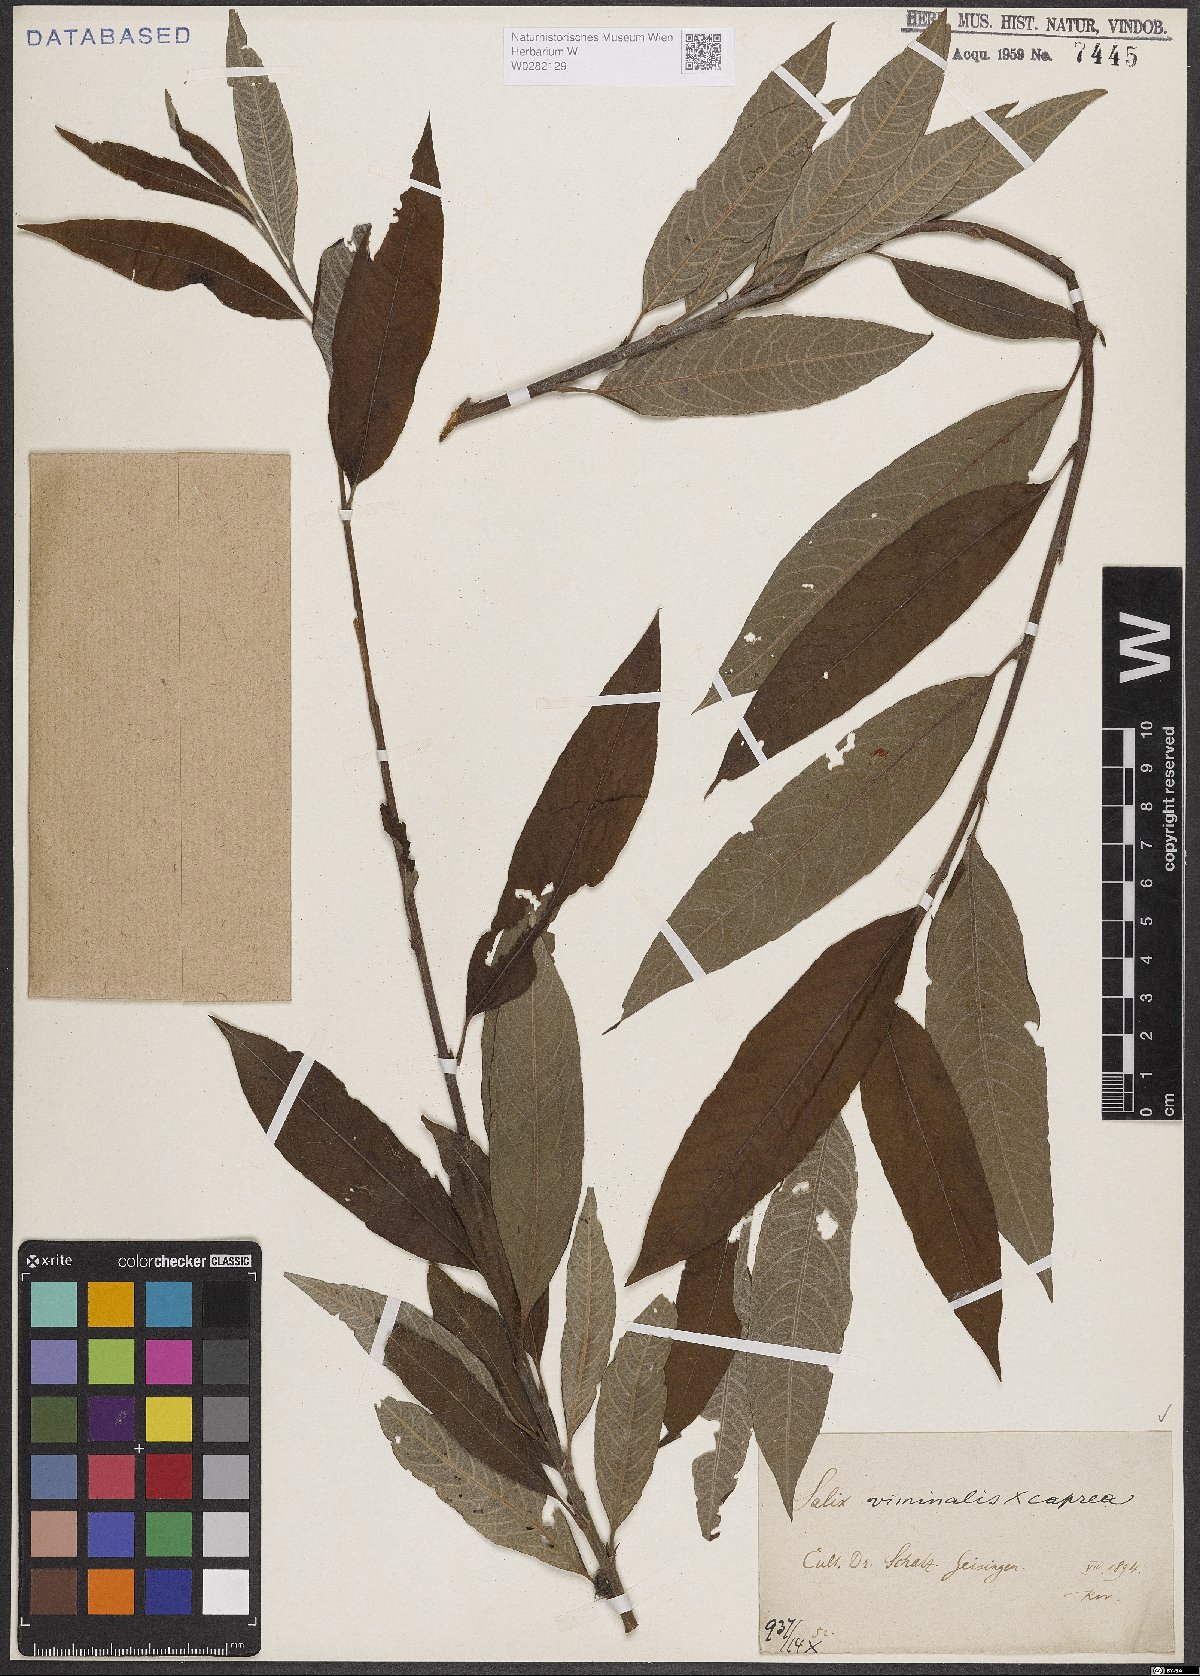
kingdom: Plantae
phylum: Tracheophyta
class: Magnoliopsida
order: Malpighiales
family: Salicaceae
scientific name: Salicaceae
